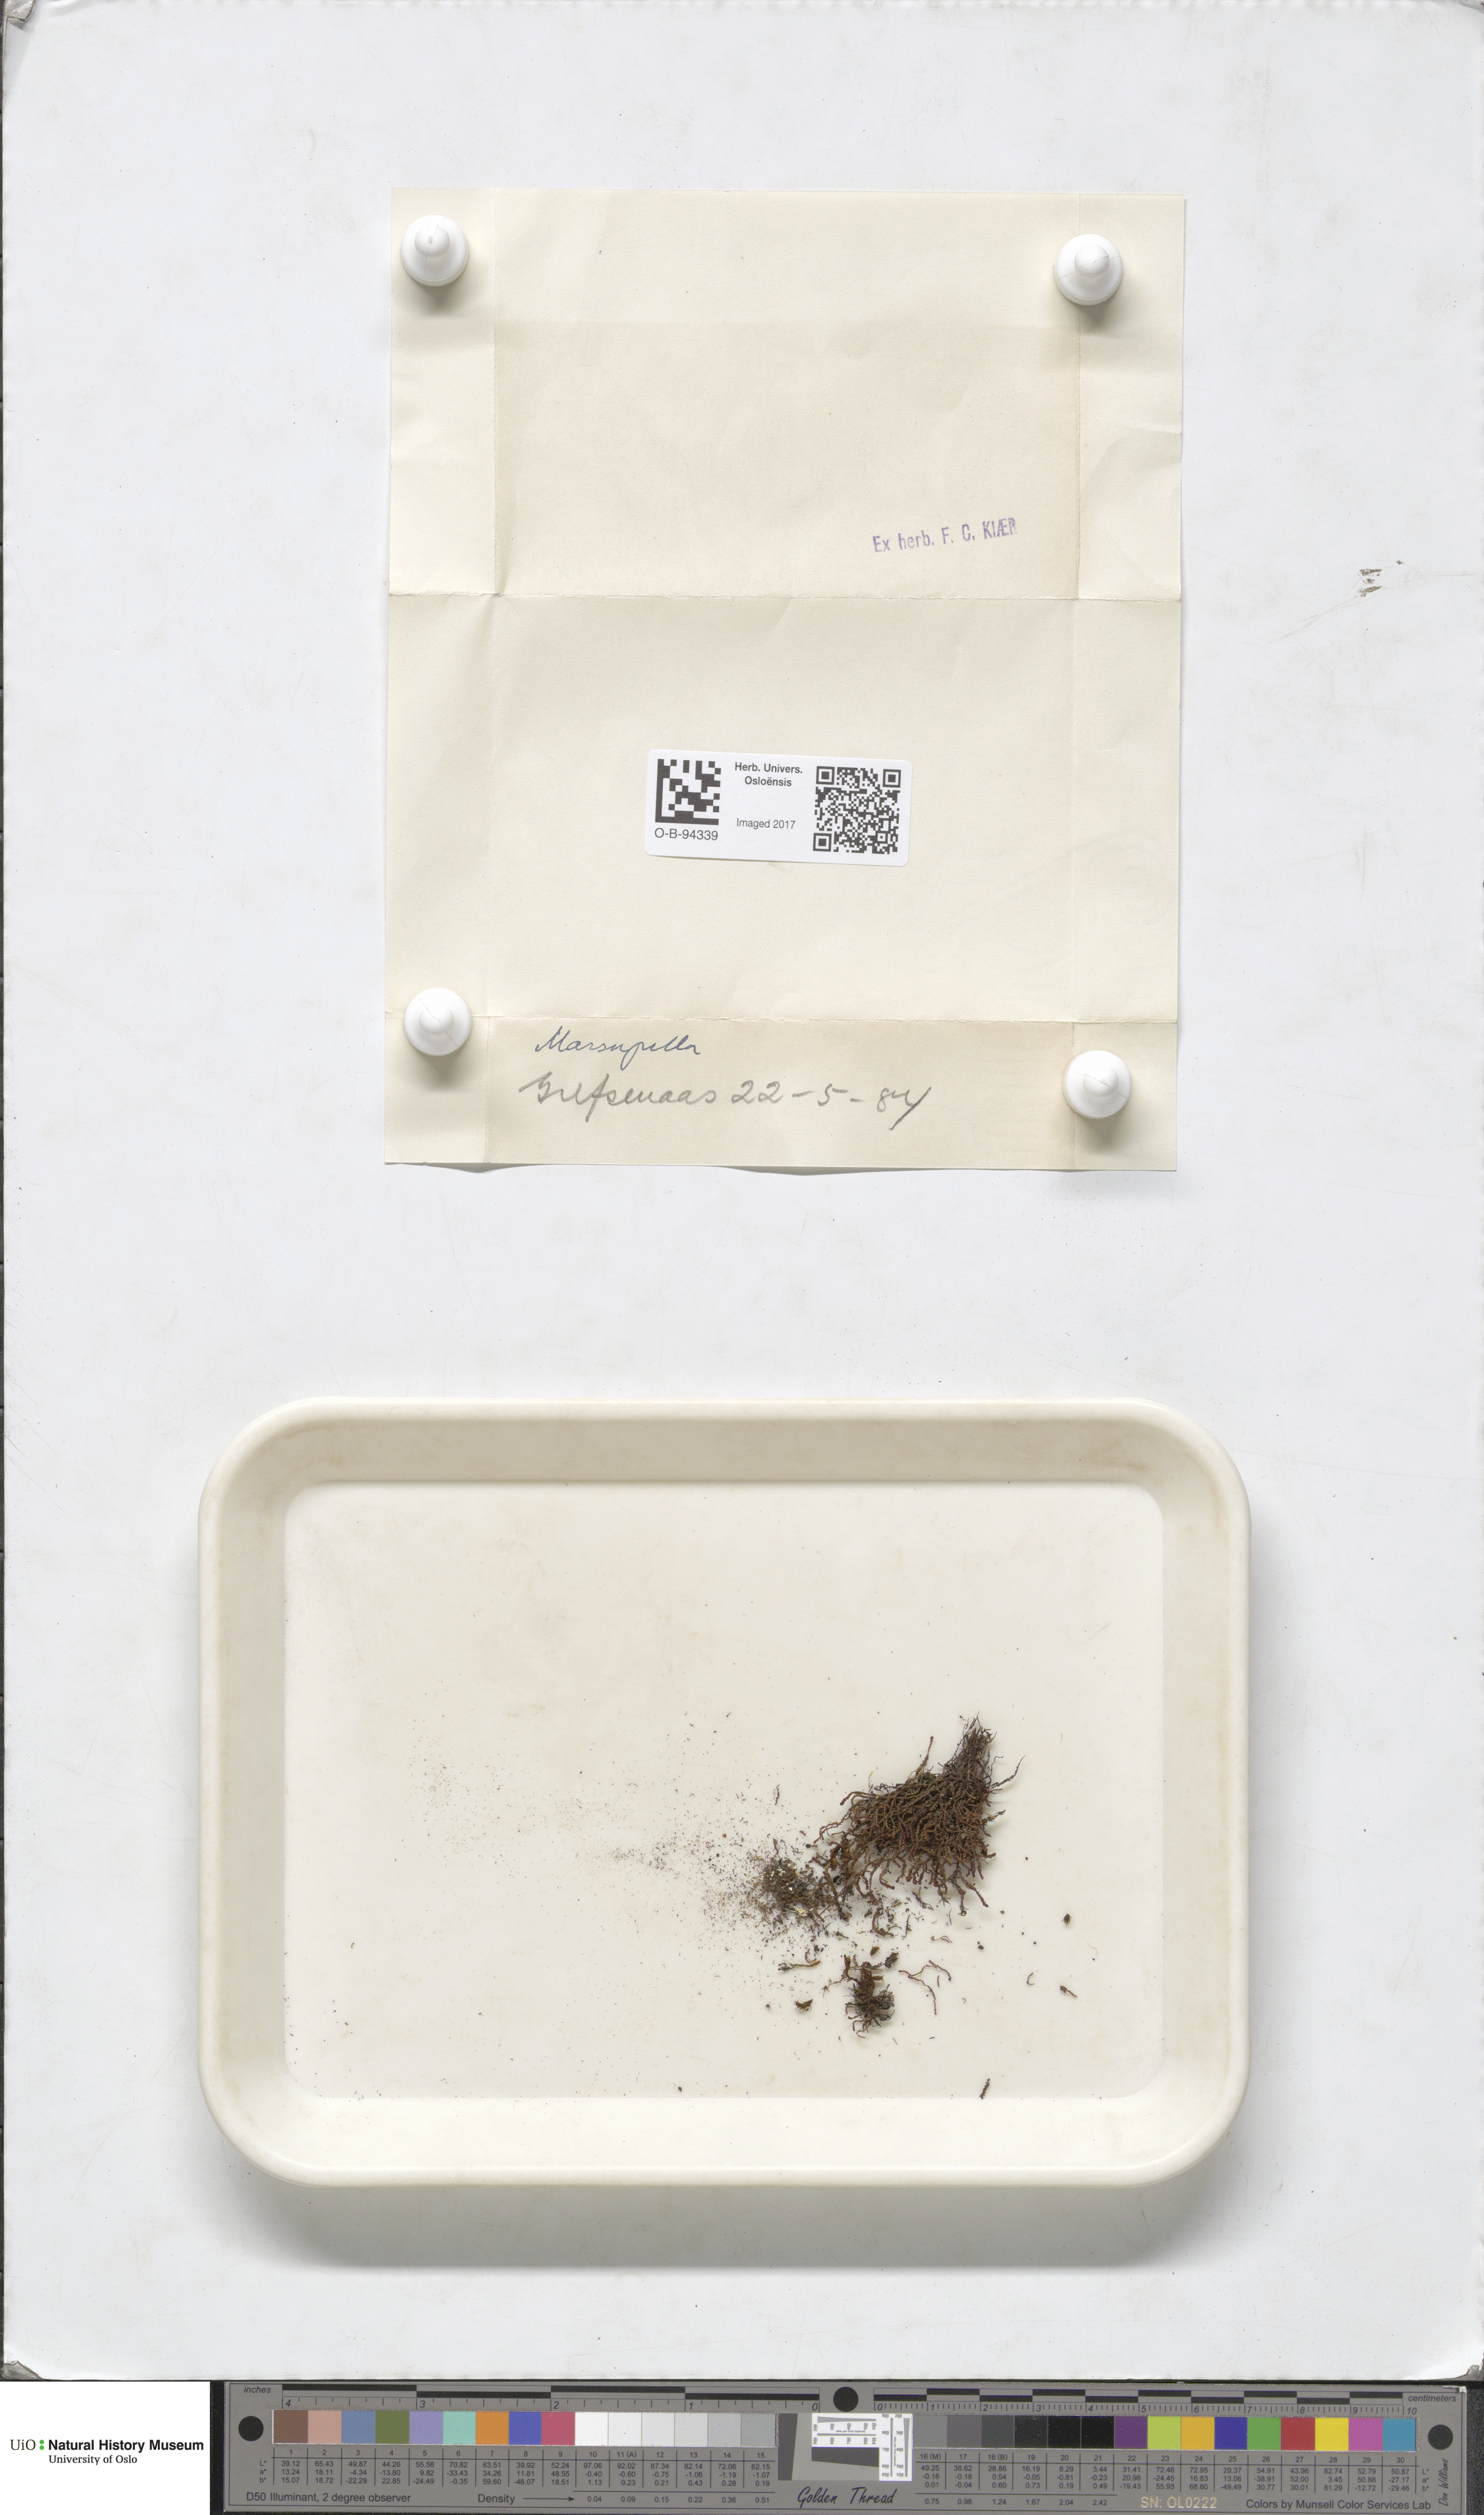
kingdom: Plantae
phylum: Marchantiophyta
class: Jungermanniopsida
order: Jungermanniales
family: Gymnomitriaceae
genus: Marsupella
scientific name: Marsupella
